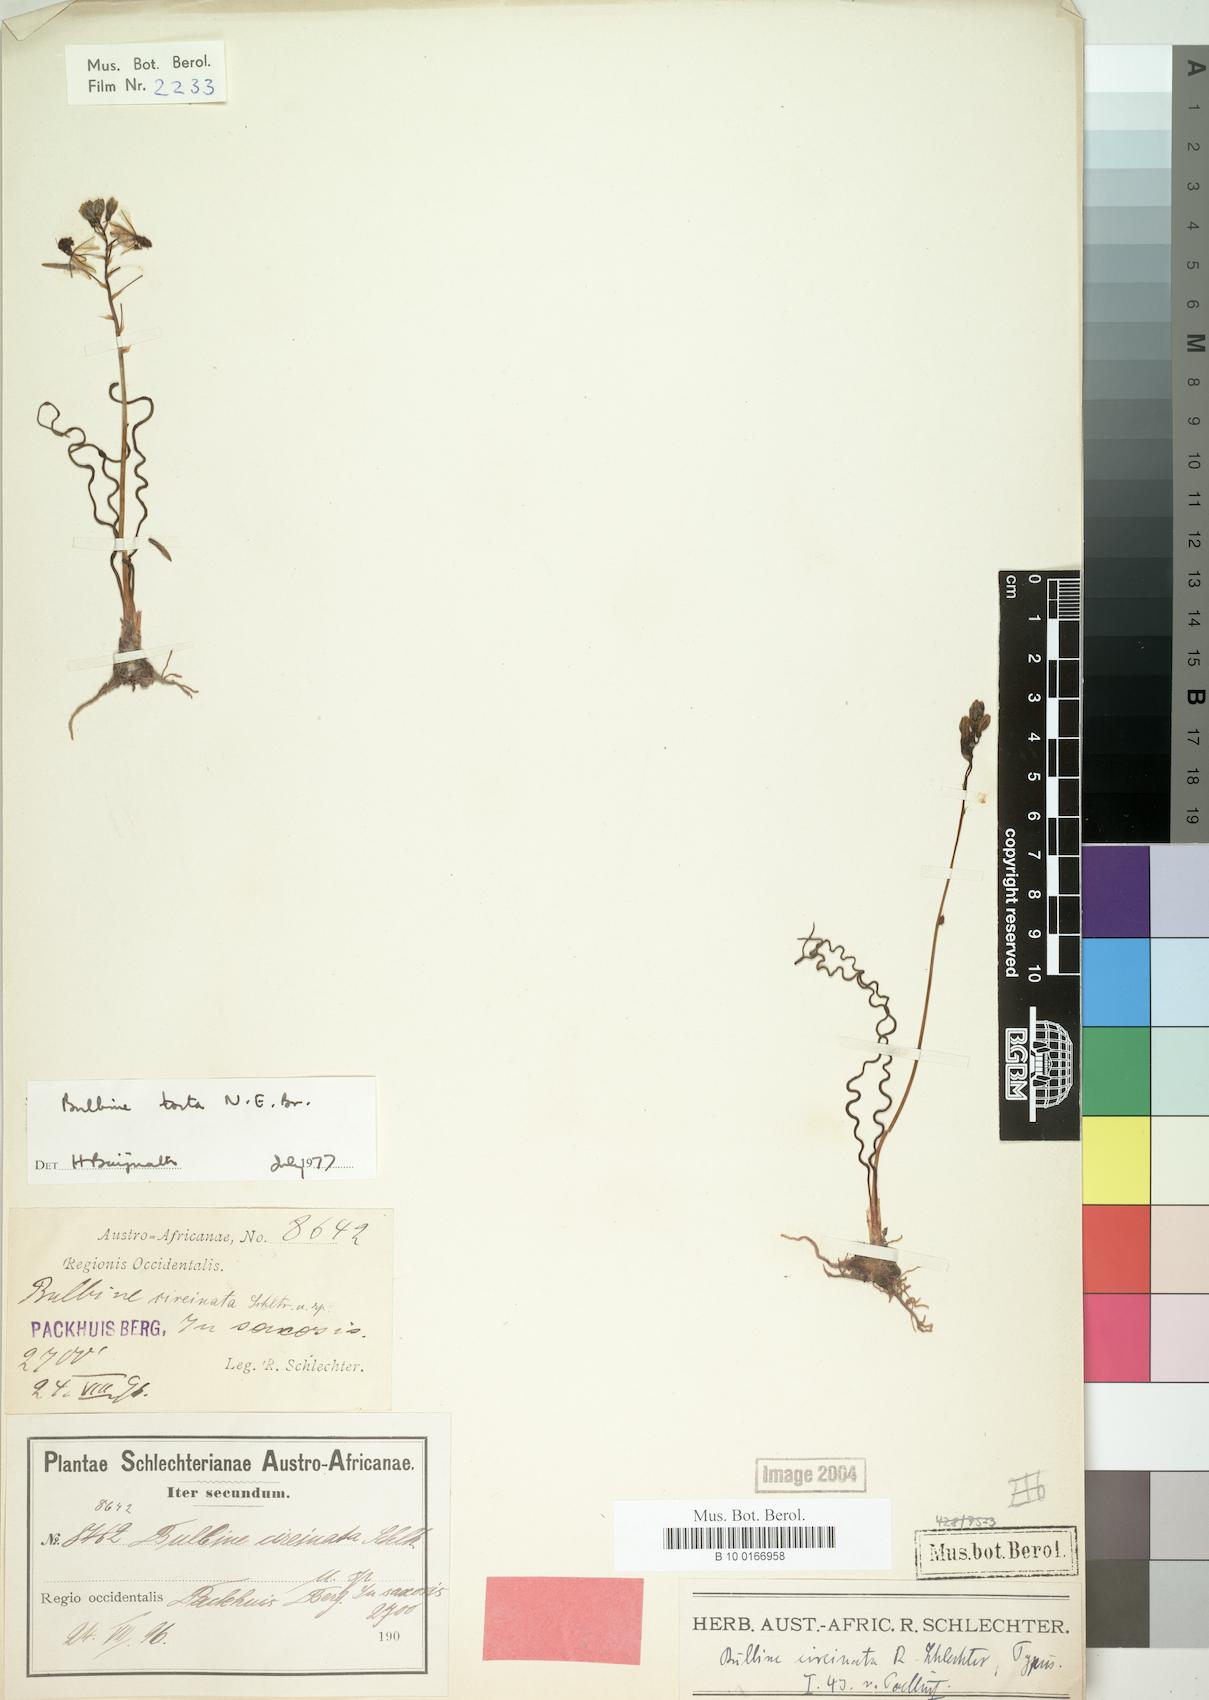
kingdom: Plantae
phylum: Tracheophyta
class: Liliopsida
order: Asparagales
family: Asphodelaceae
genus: Bulbine
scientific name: Bulbine torta
